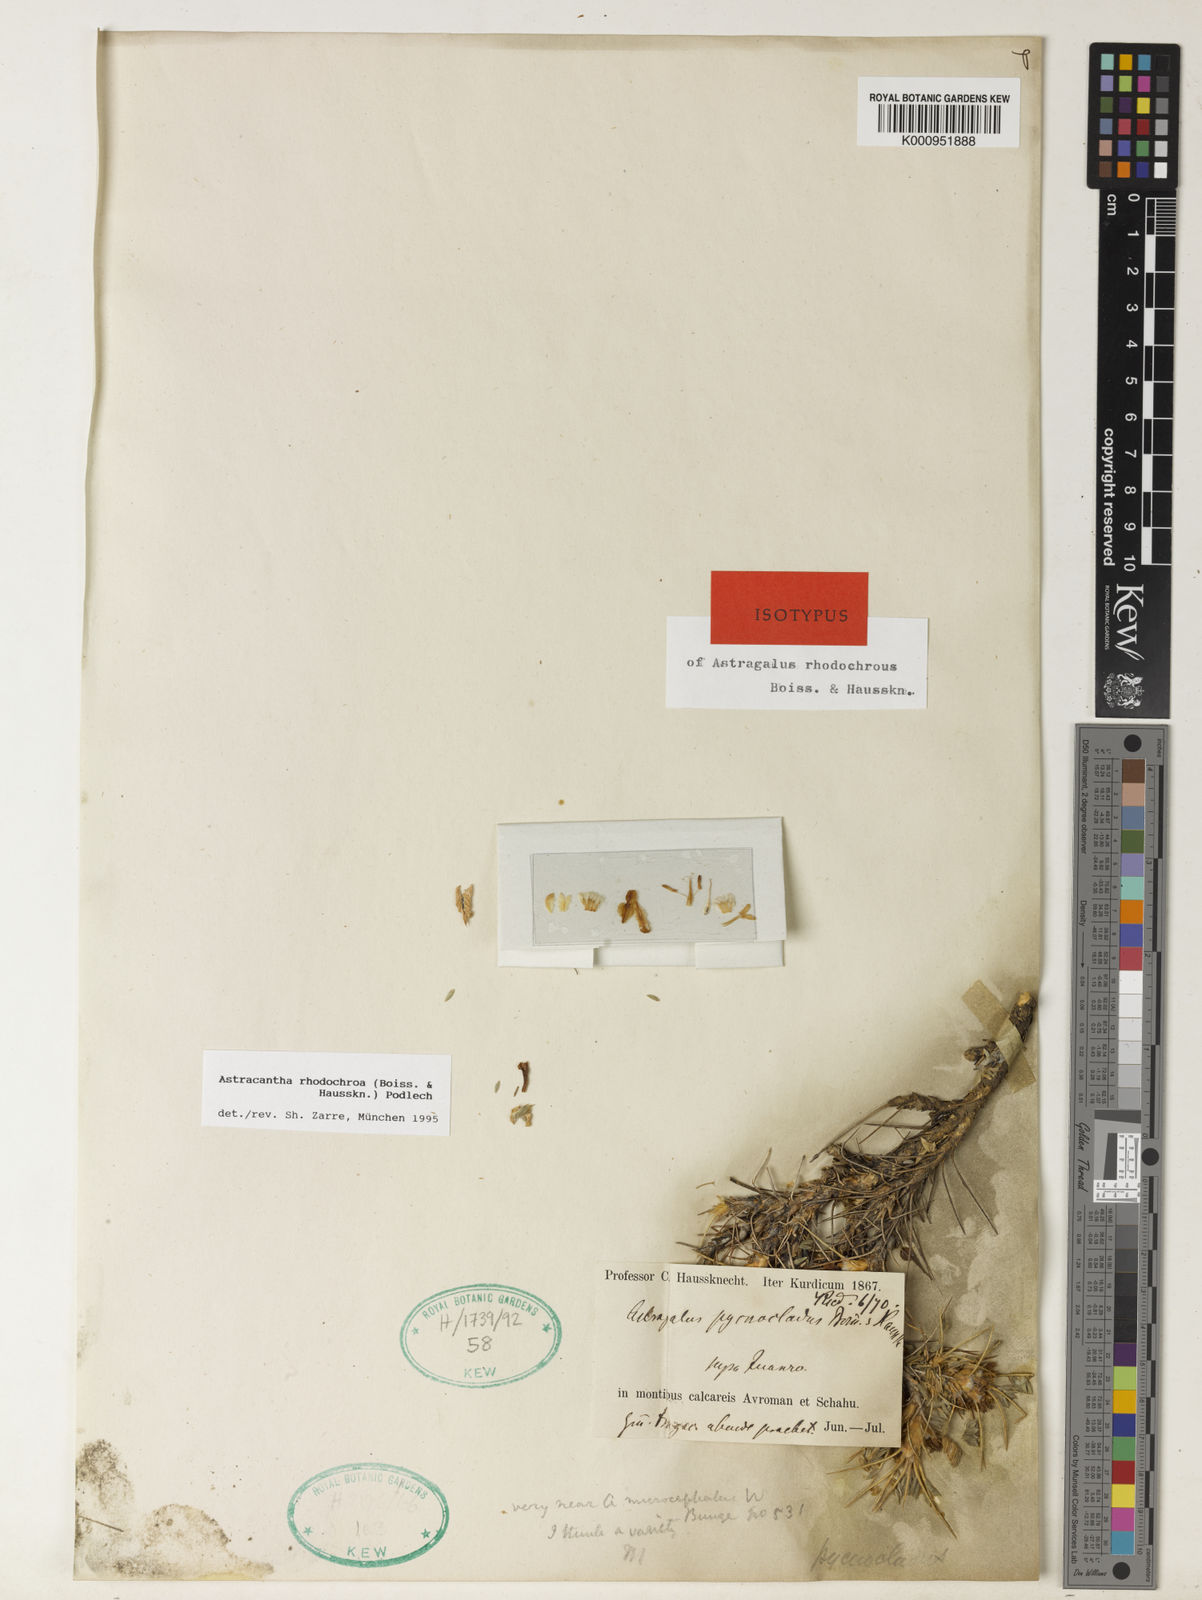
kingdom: Plantae
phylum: Tracheophyta
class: Magnoliopsida
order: Fabales
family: Fabaceae
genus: Astragalus
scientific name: Astragalus
